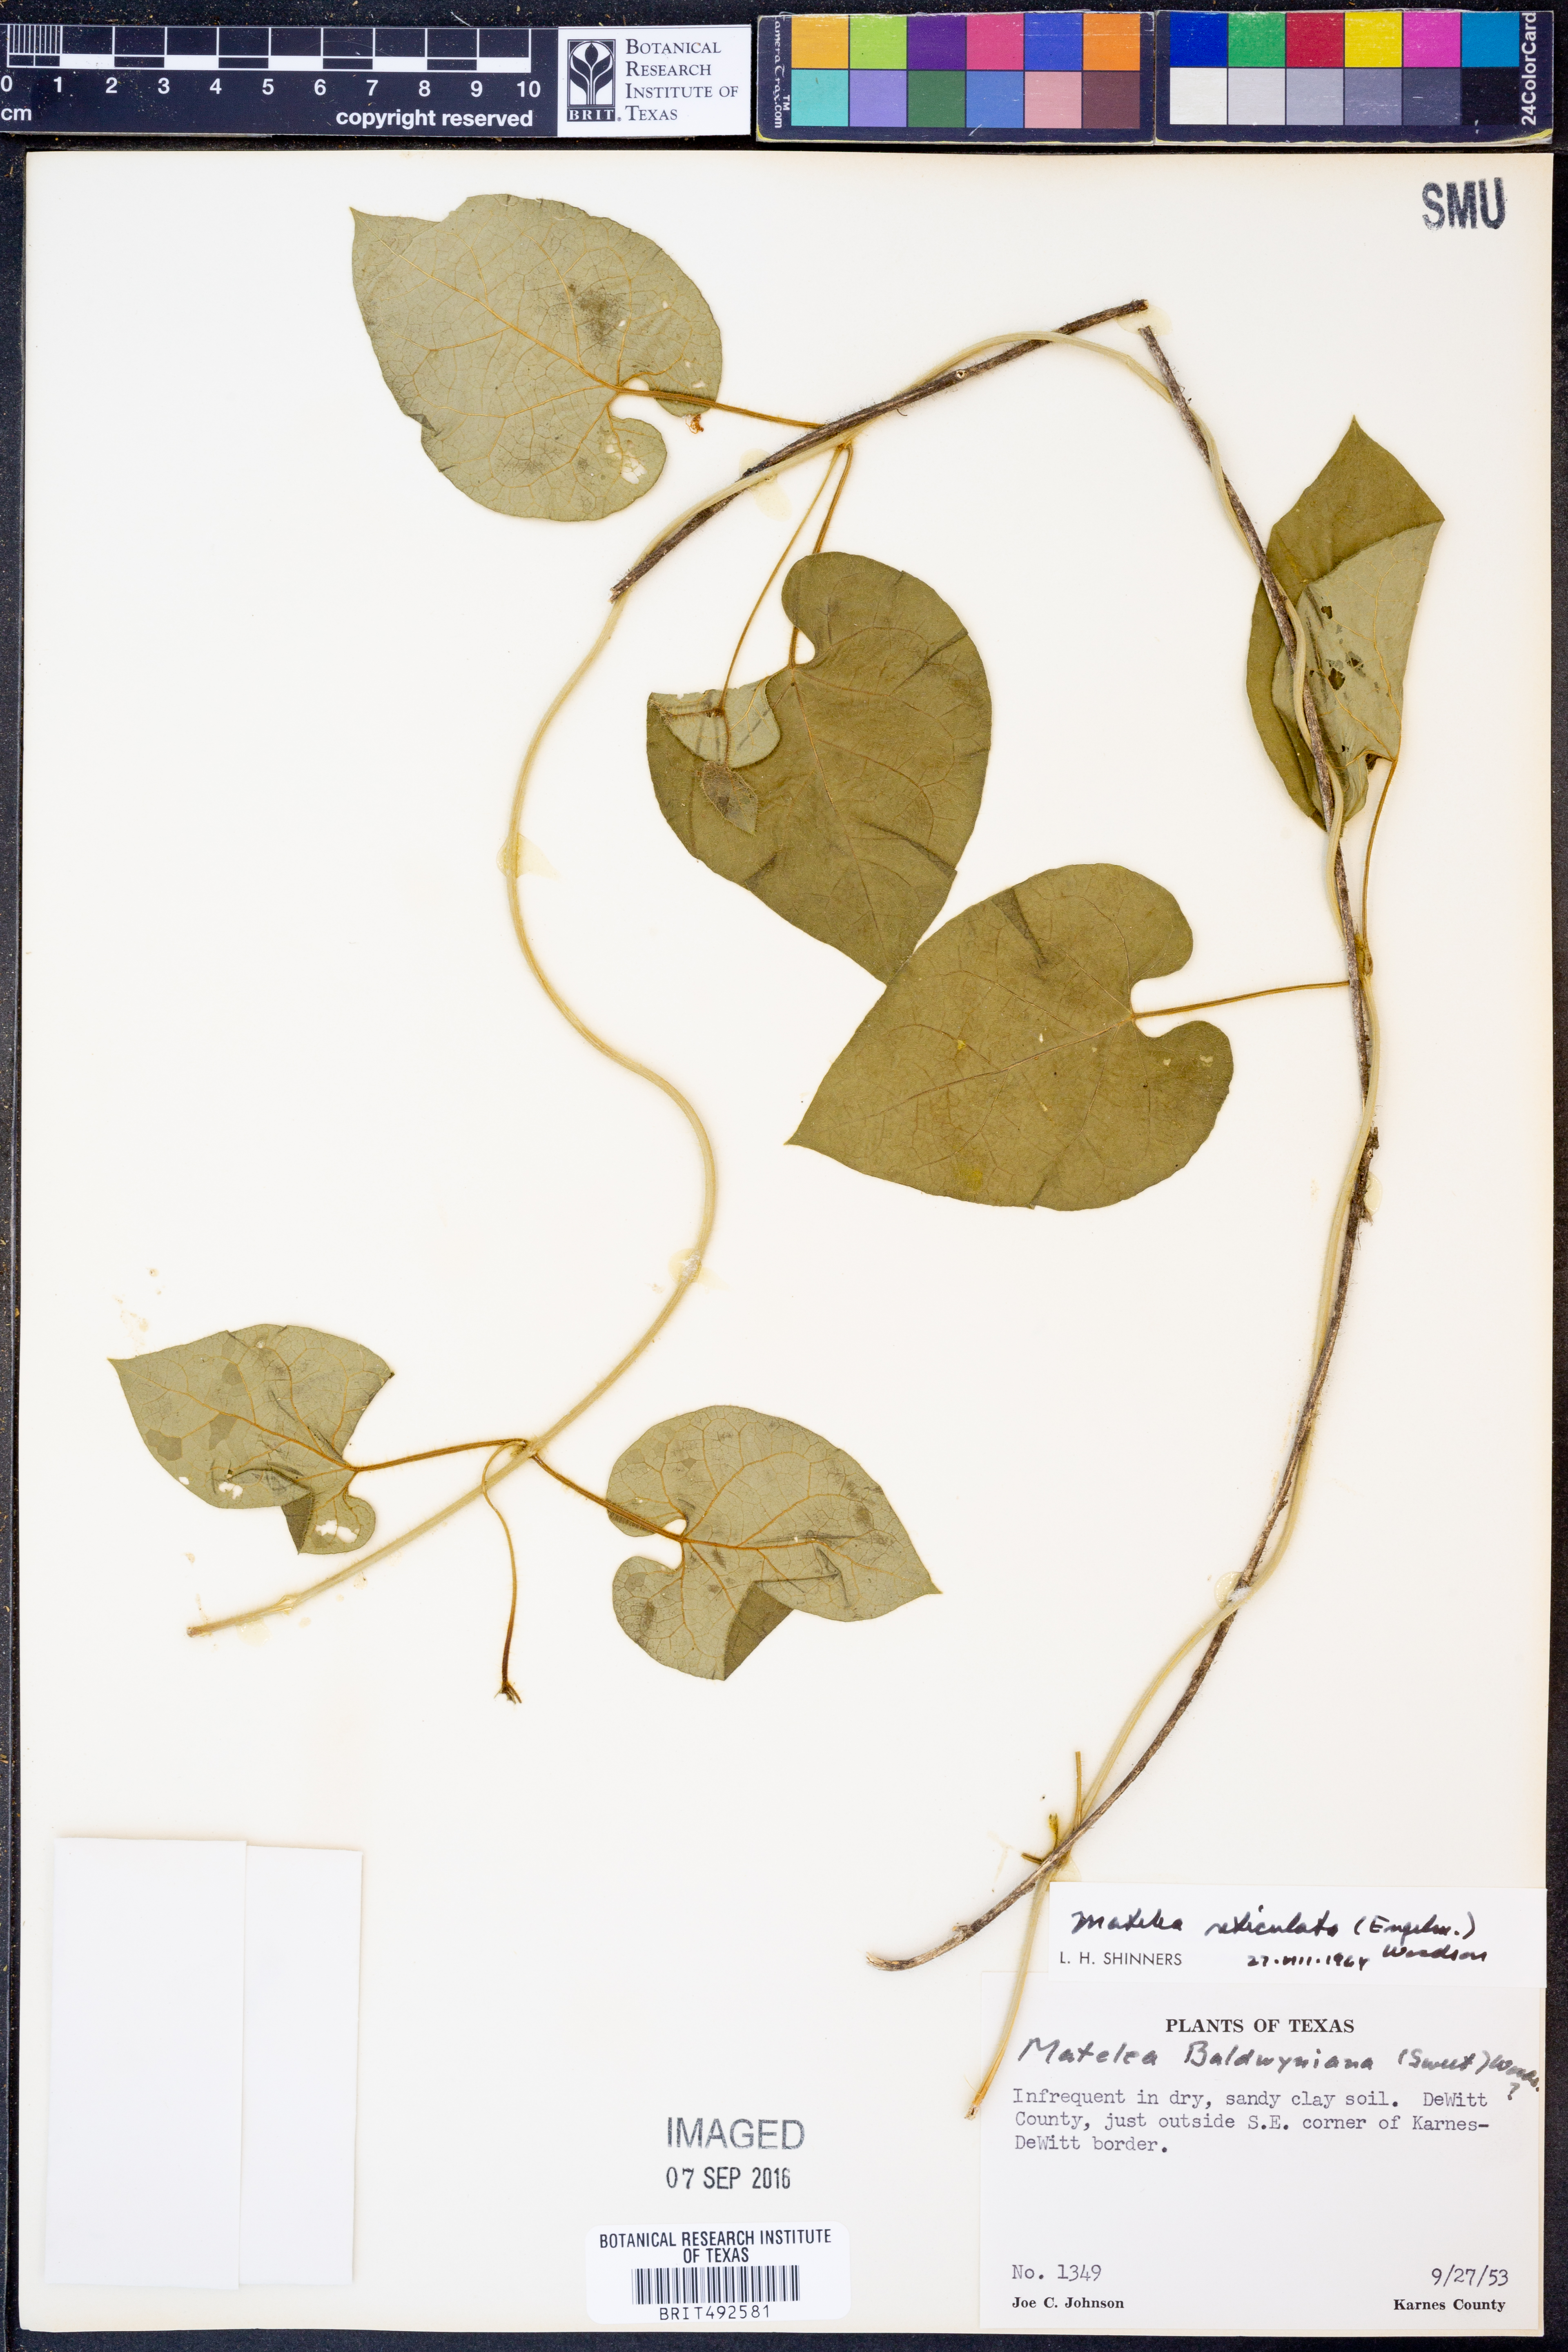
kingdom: Plantae
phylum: Tracheophyta
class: Magnoliopsida
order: Gentianales
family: Apocynaceae
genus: Dictyanthus
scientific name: Dictyanthus reticulatus
